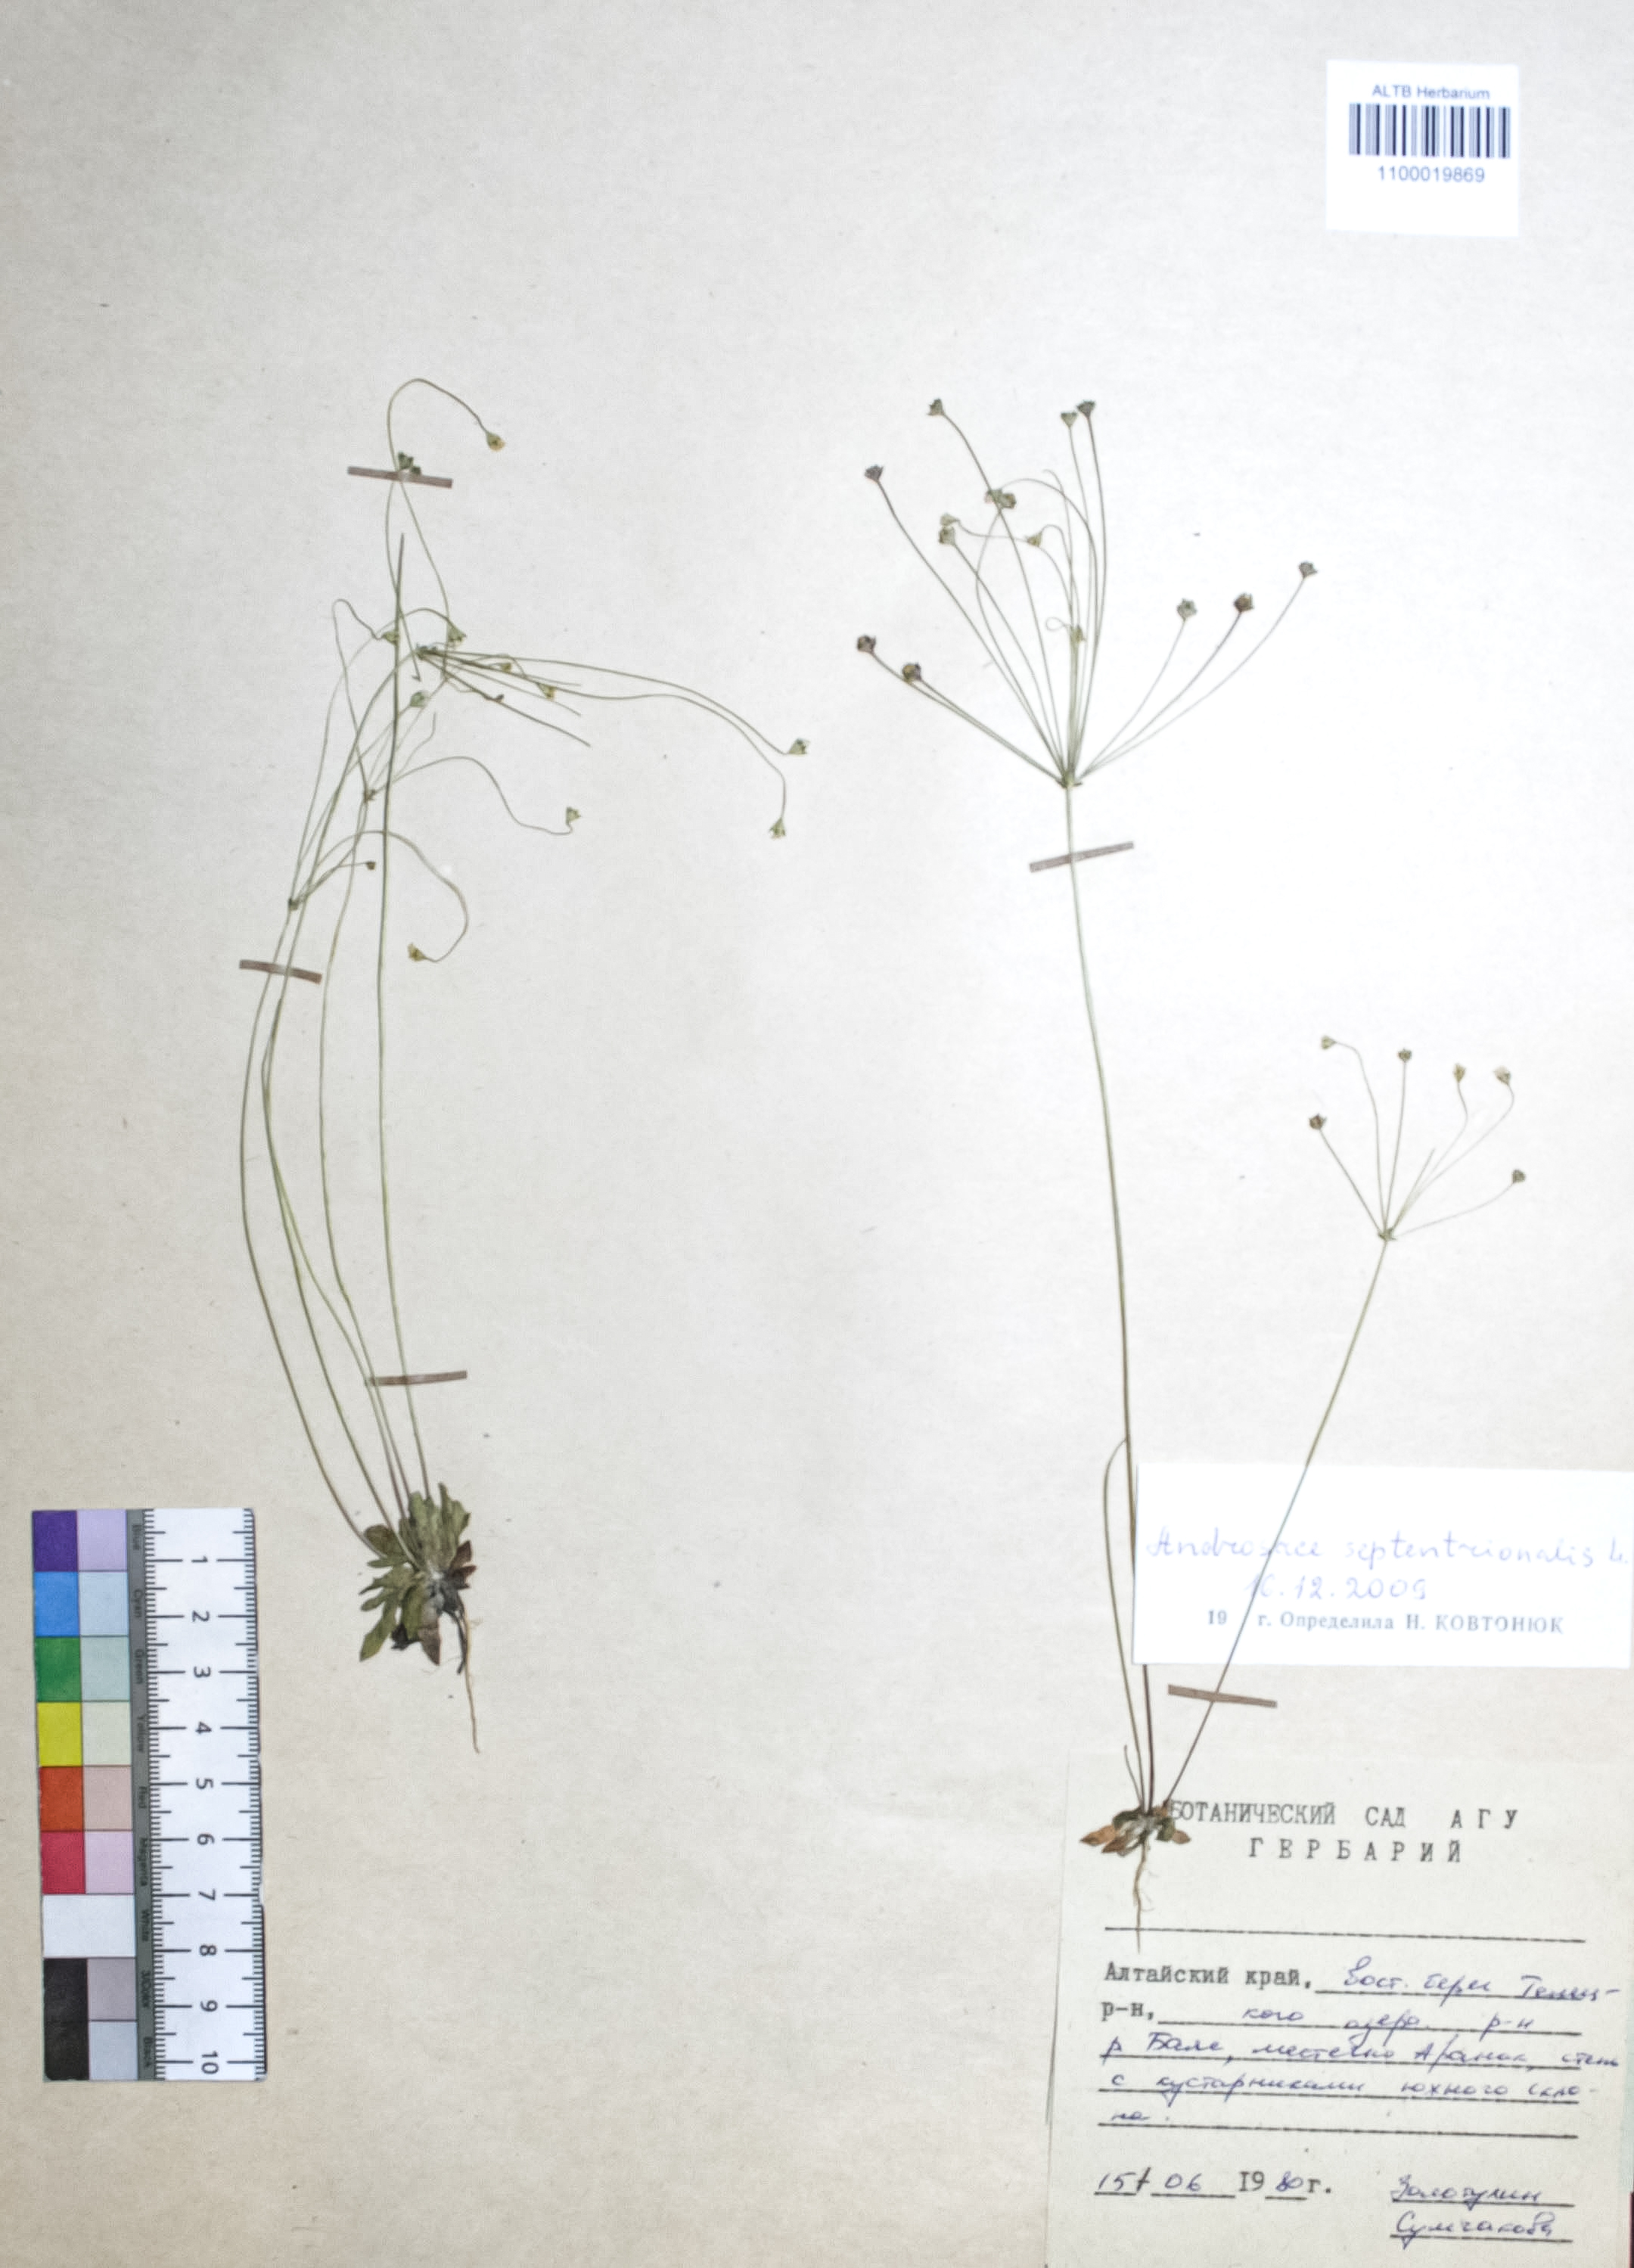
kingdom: Plantae
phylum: Tracheophyta
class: Magnoliopsida
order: Ericales
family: Primulaceae
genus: Androsace
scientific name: Androsace septentrionalis
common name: Hairy northern fairy-candelabra
